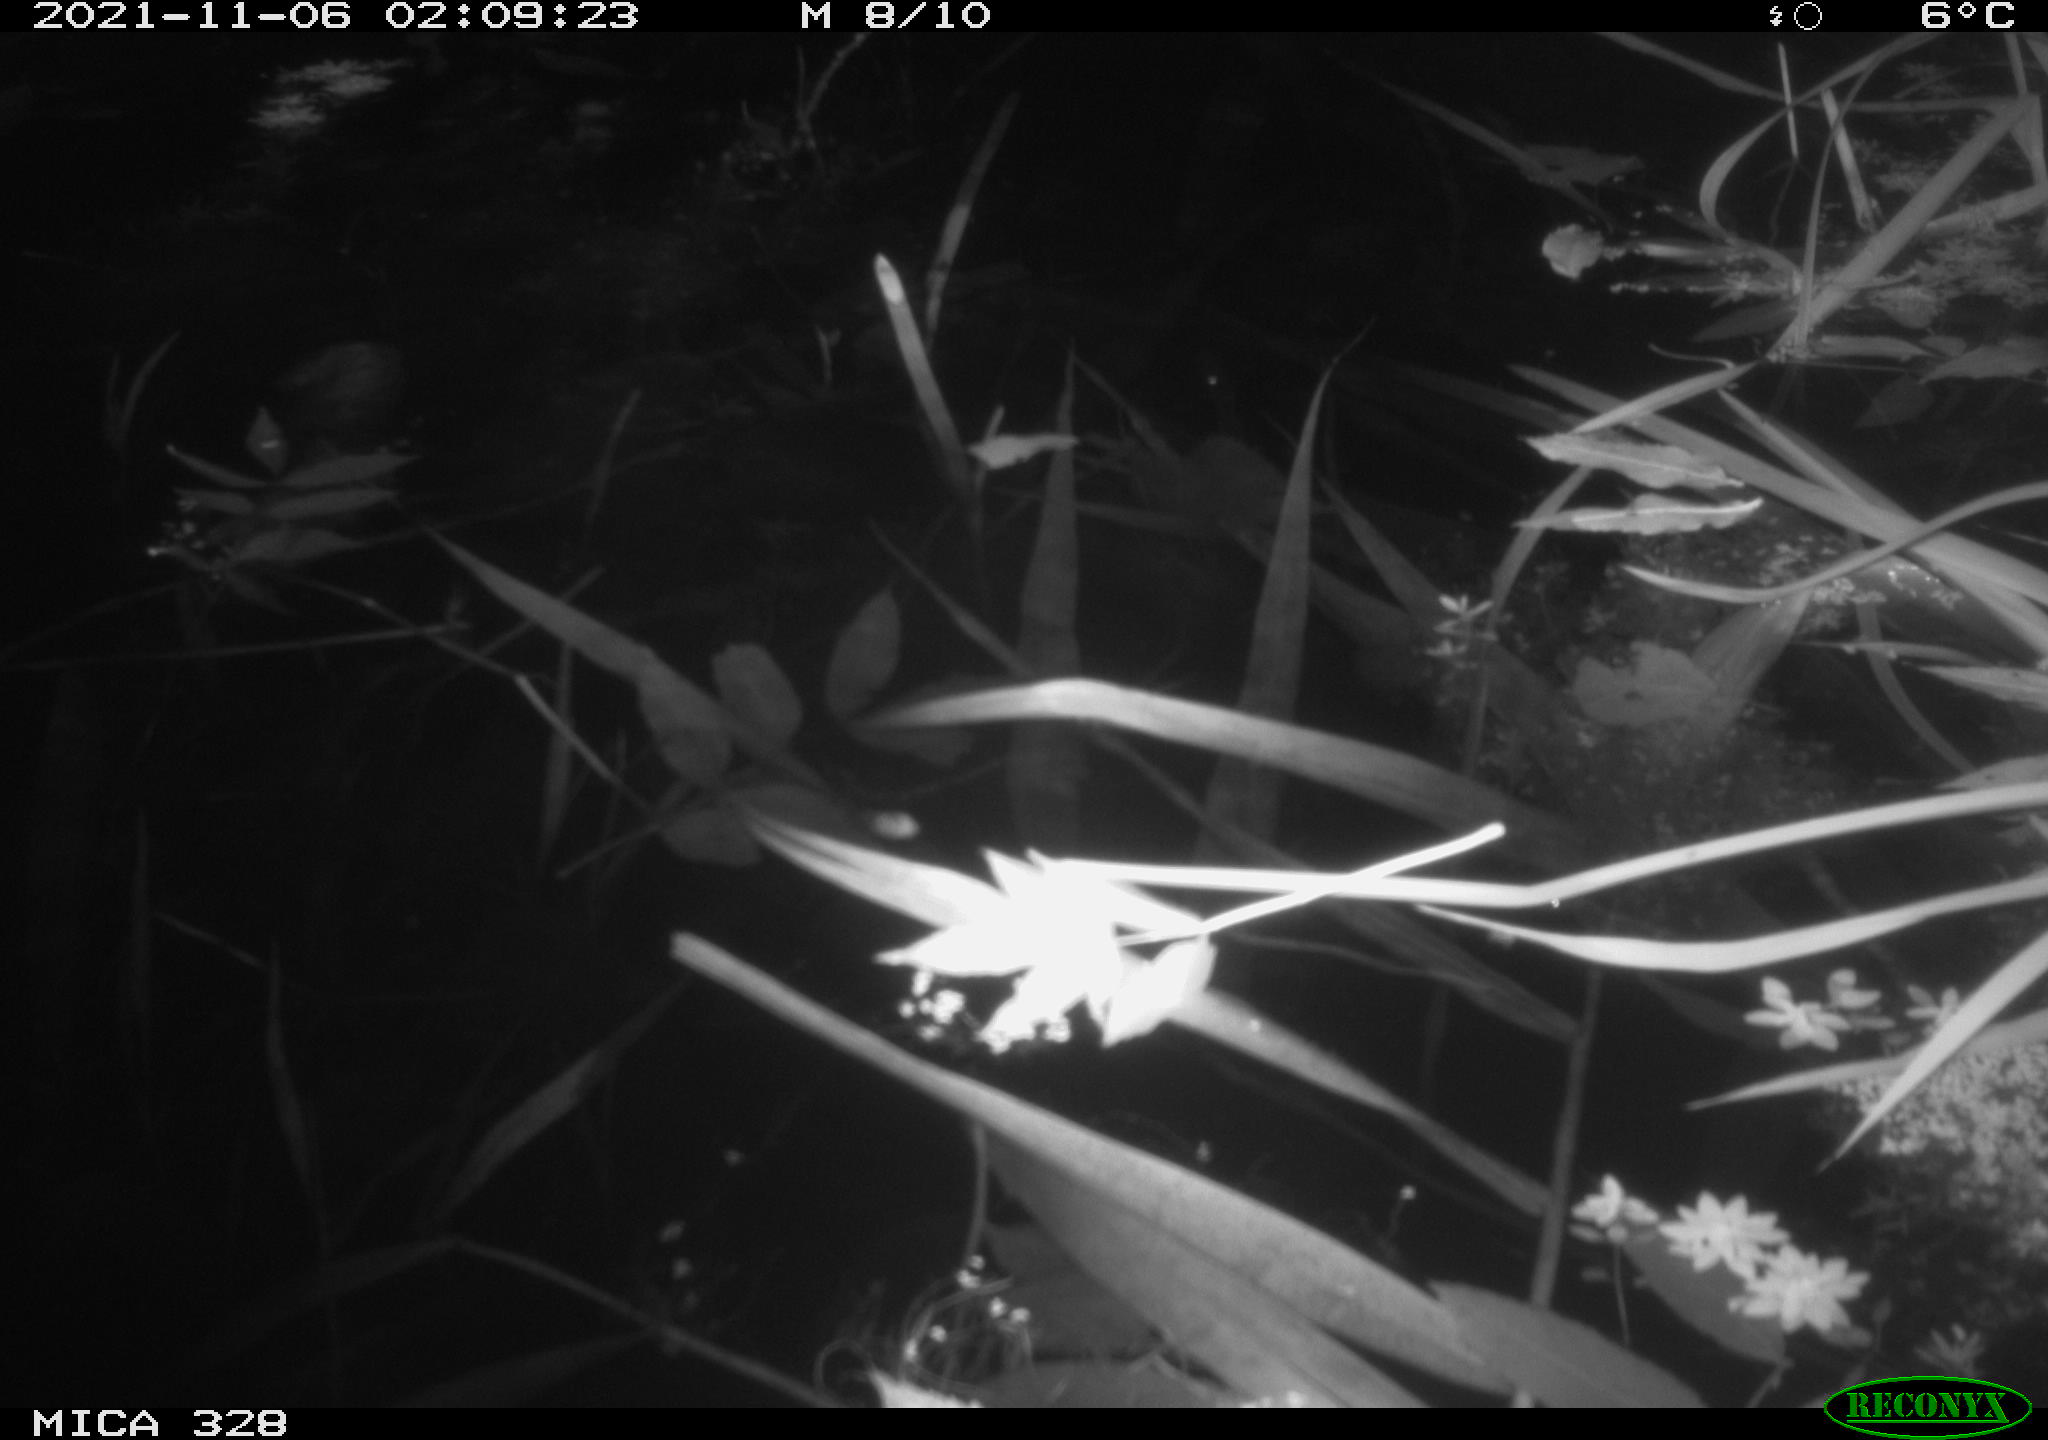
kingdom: Animalia
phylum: Chordata
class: Mammalia
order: Rodentia
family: Cricetidae
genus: Ondatra
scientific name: Ondatra zibethicus
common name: Muskrat
